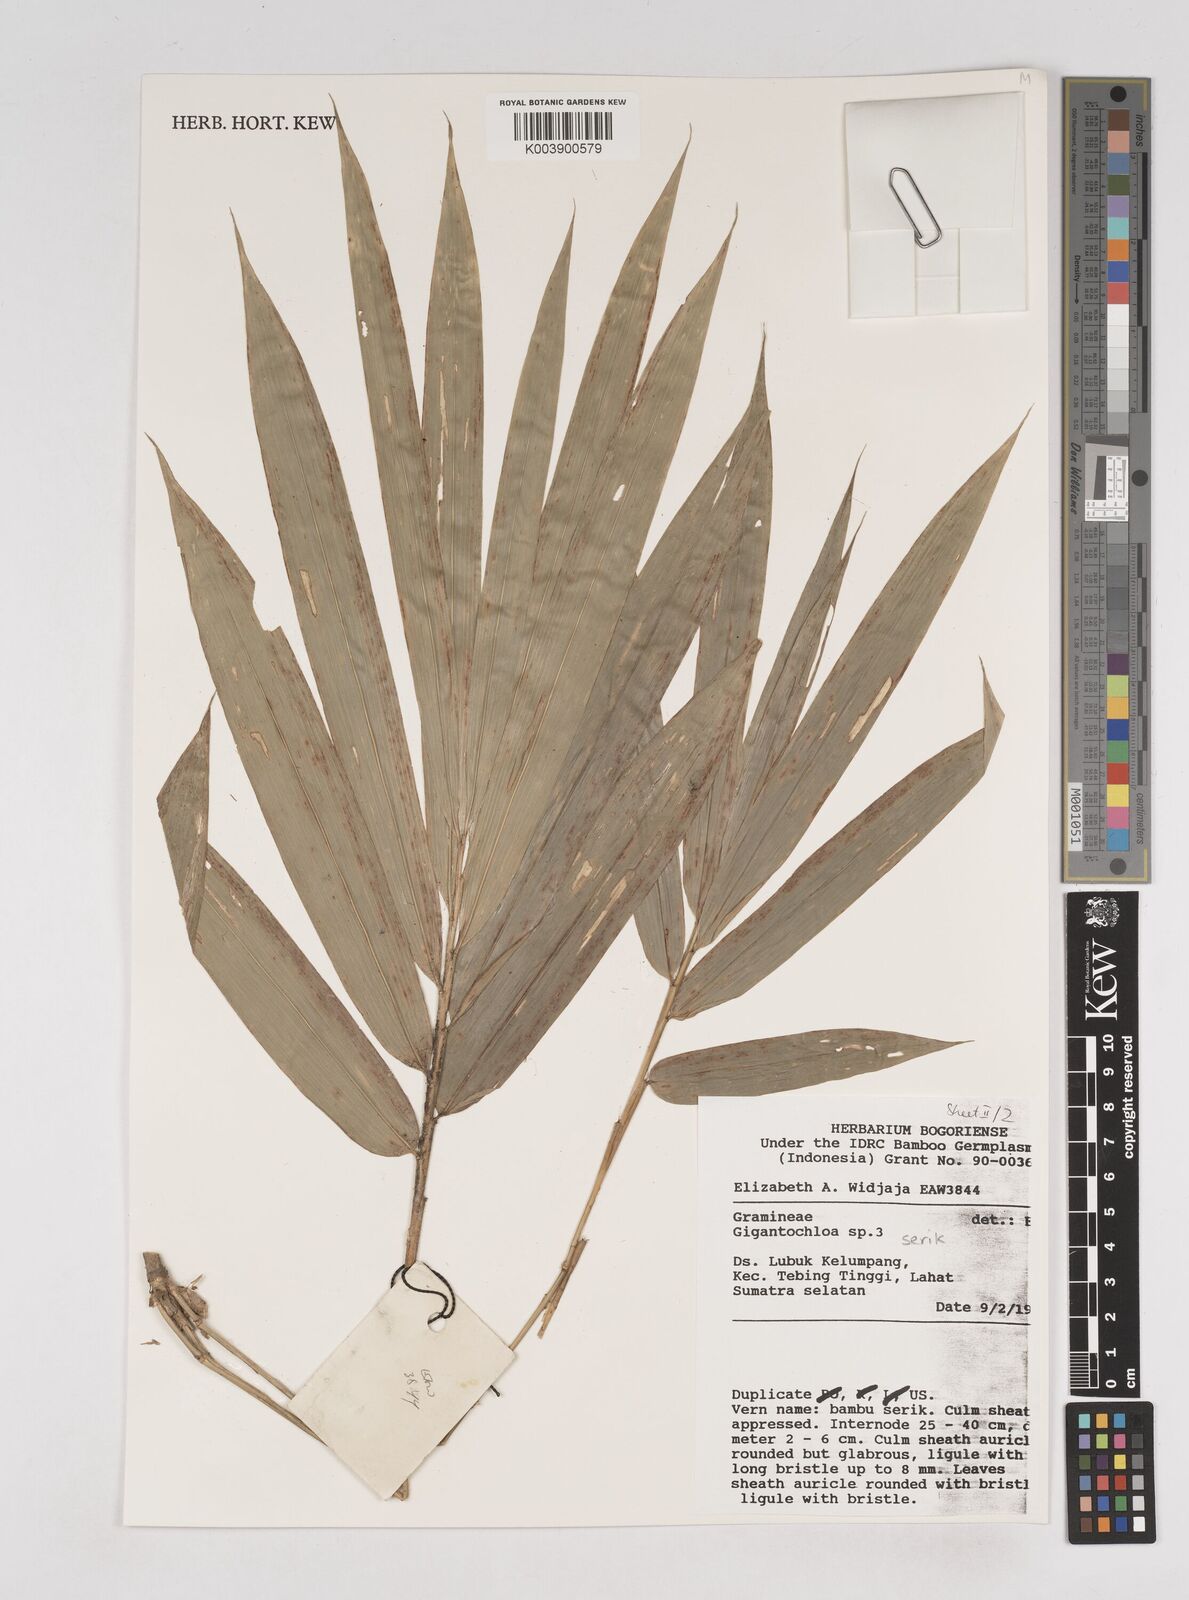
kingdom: Plantae
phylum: Tracheophyta
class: Liliopsida
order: Poales
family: Poaceae
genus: Gigantochloa
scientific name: Gigantochloa serik
